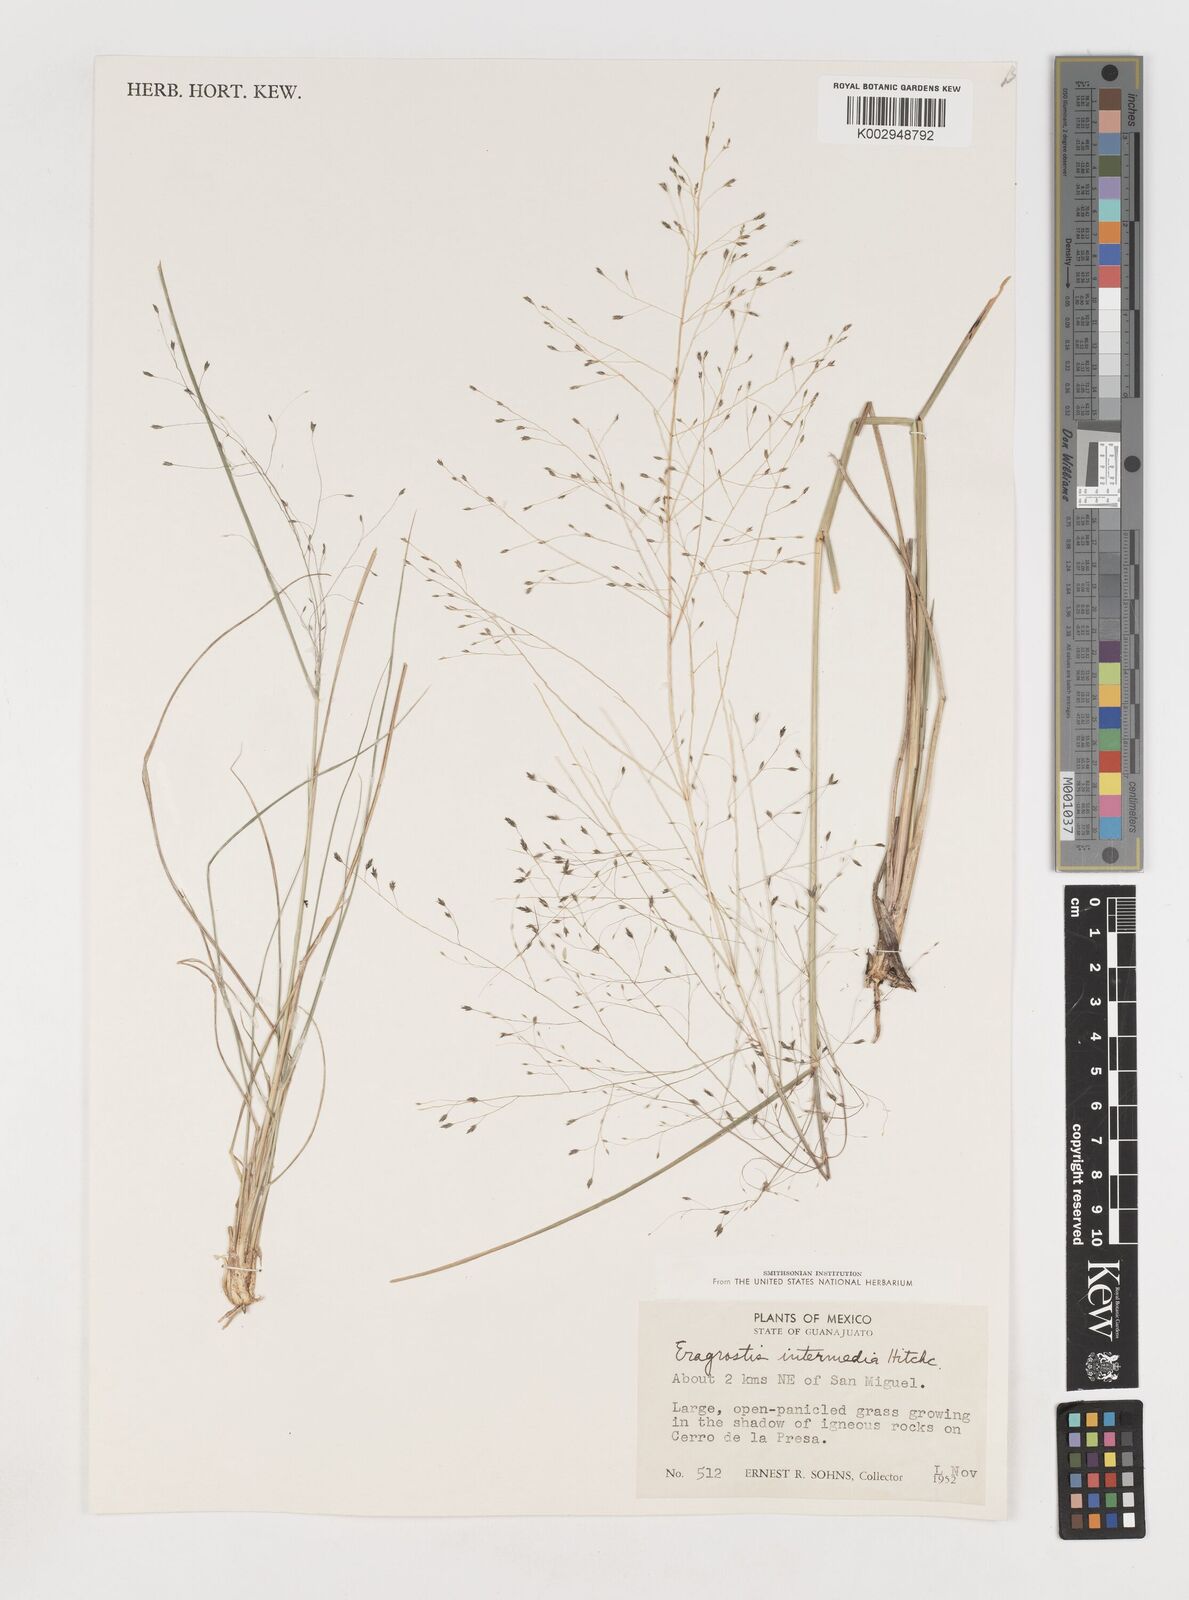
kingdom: Plantae
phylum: Tracheophyta
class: Liliopsida
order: Poales
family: Poaceae
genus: Eragrostis
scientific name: Eragrostis intermedia
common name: Plains love grass
